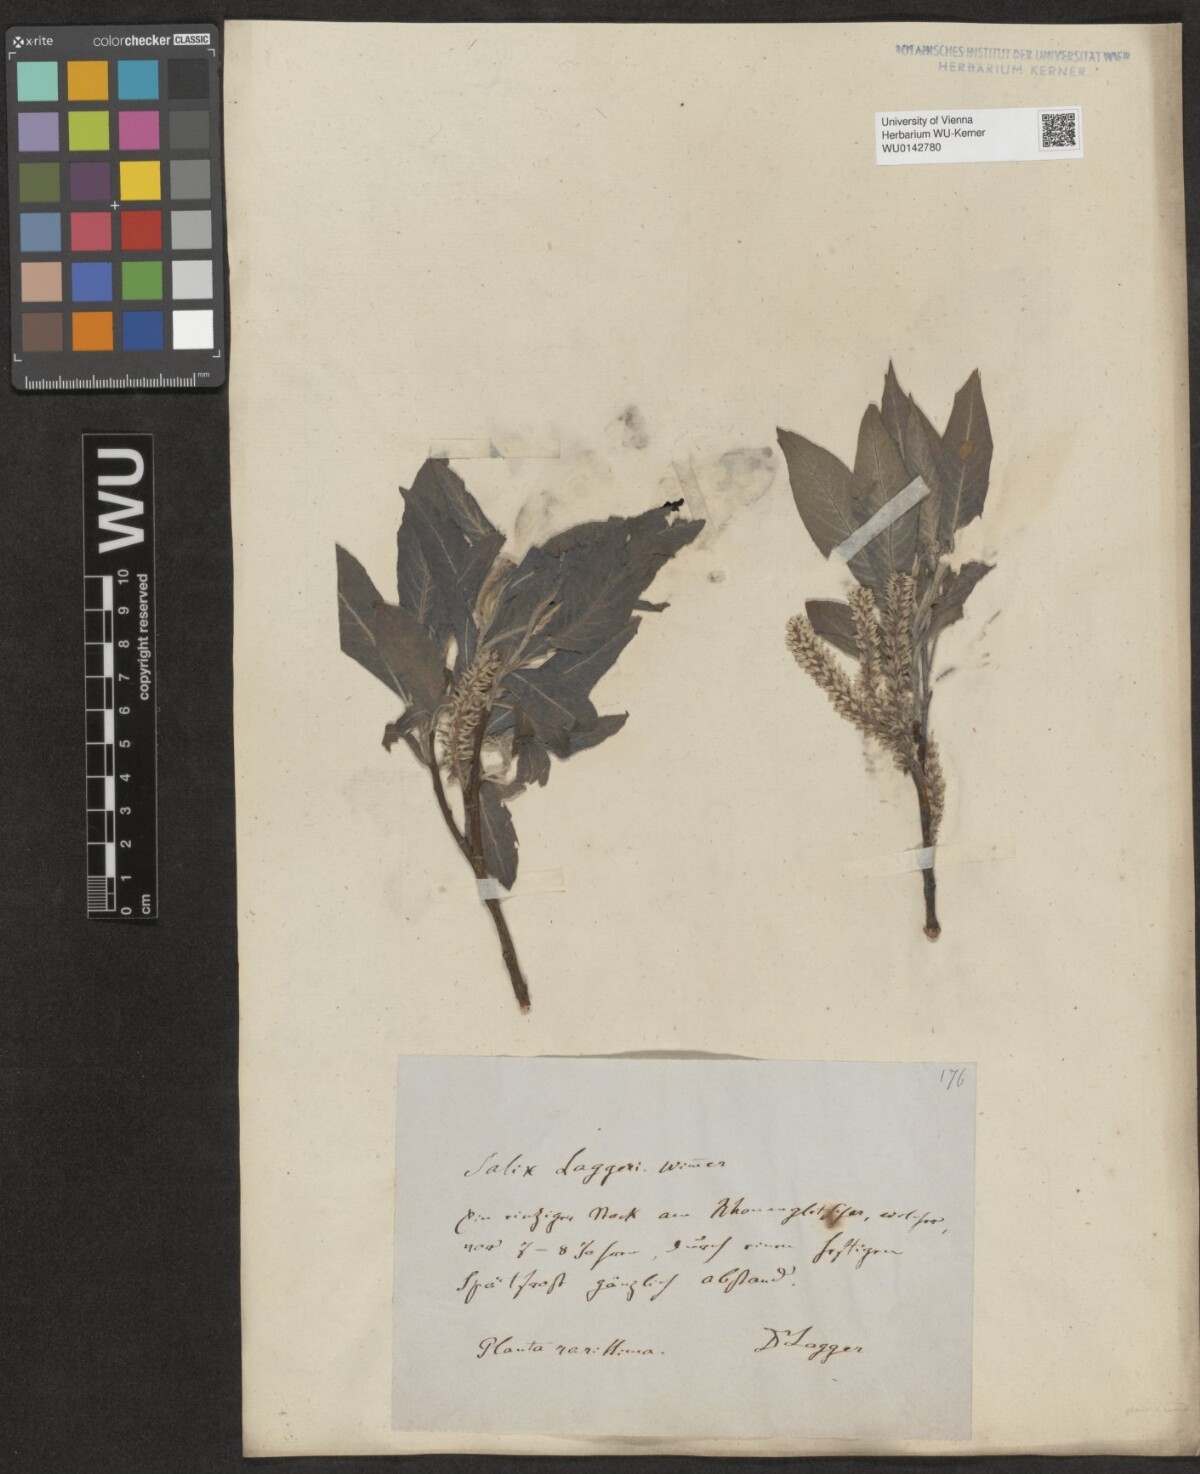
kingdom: Plantae
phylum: Tracheophyta
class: Magnoliopsida
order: Malpighiales
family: Salicaceae
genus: Salix
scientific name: Salix laggeri
